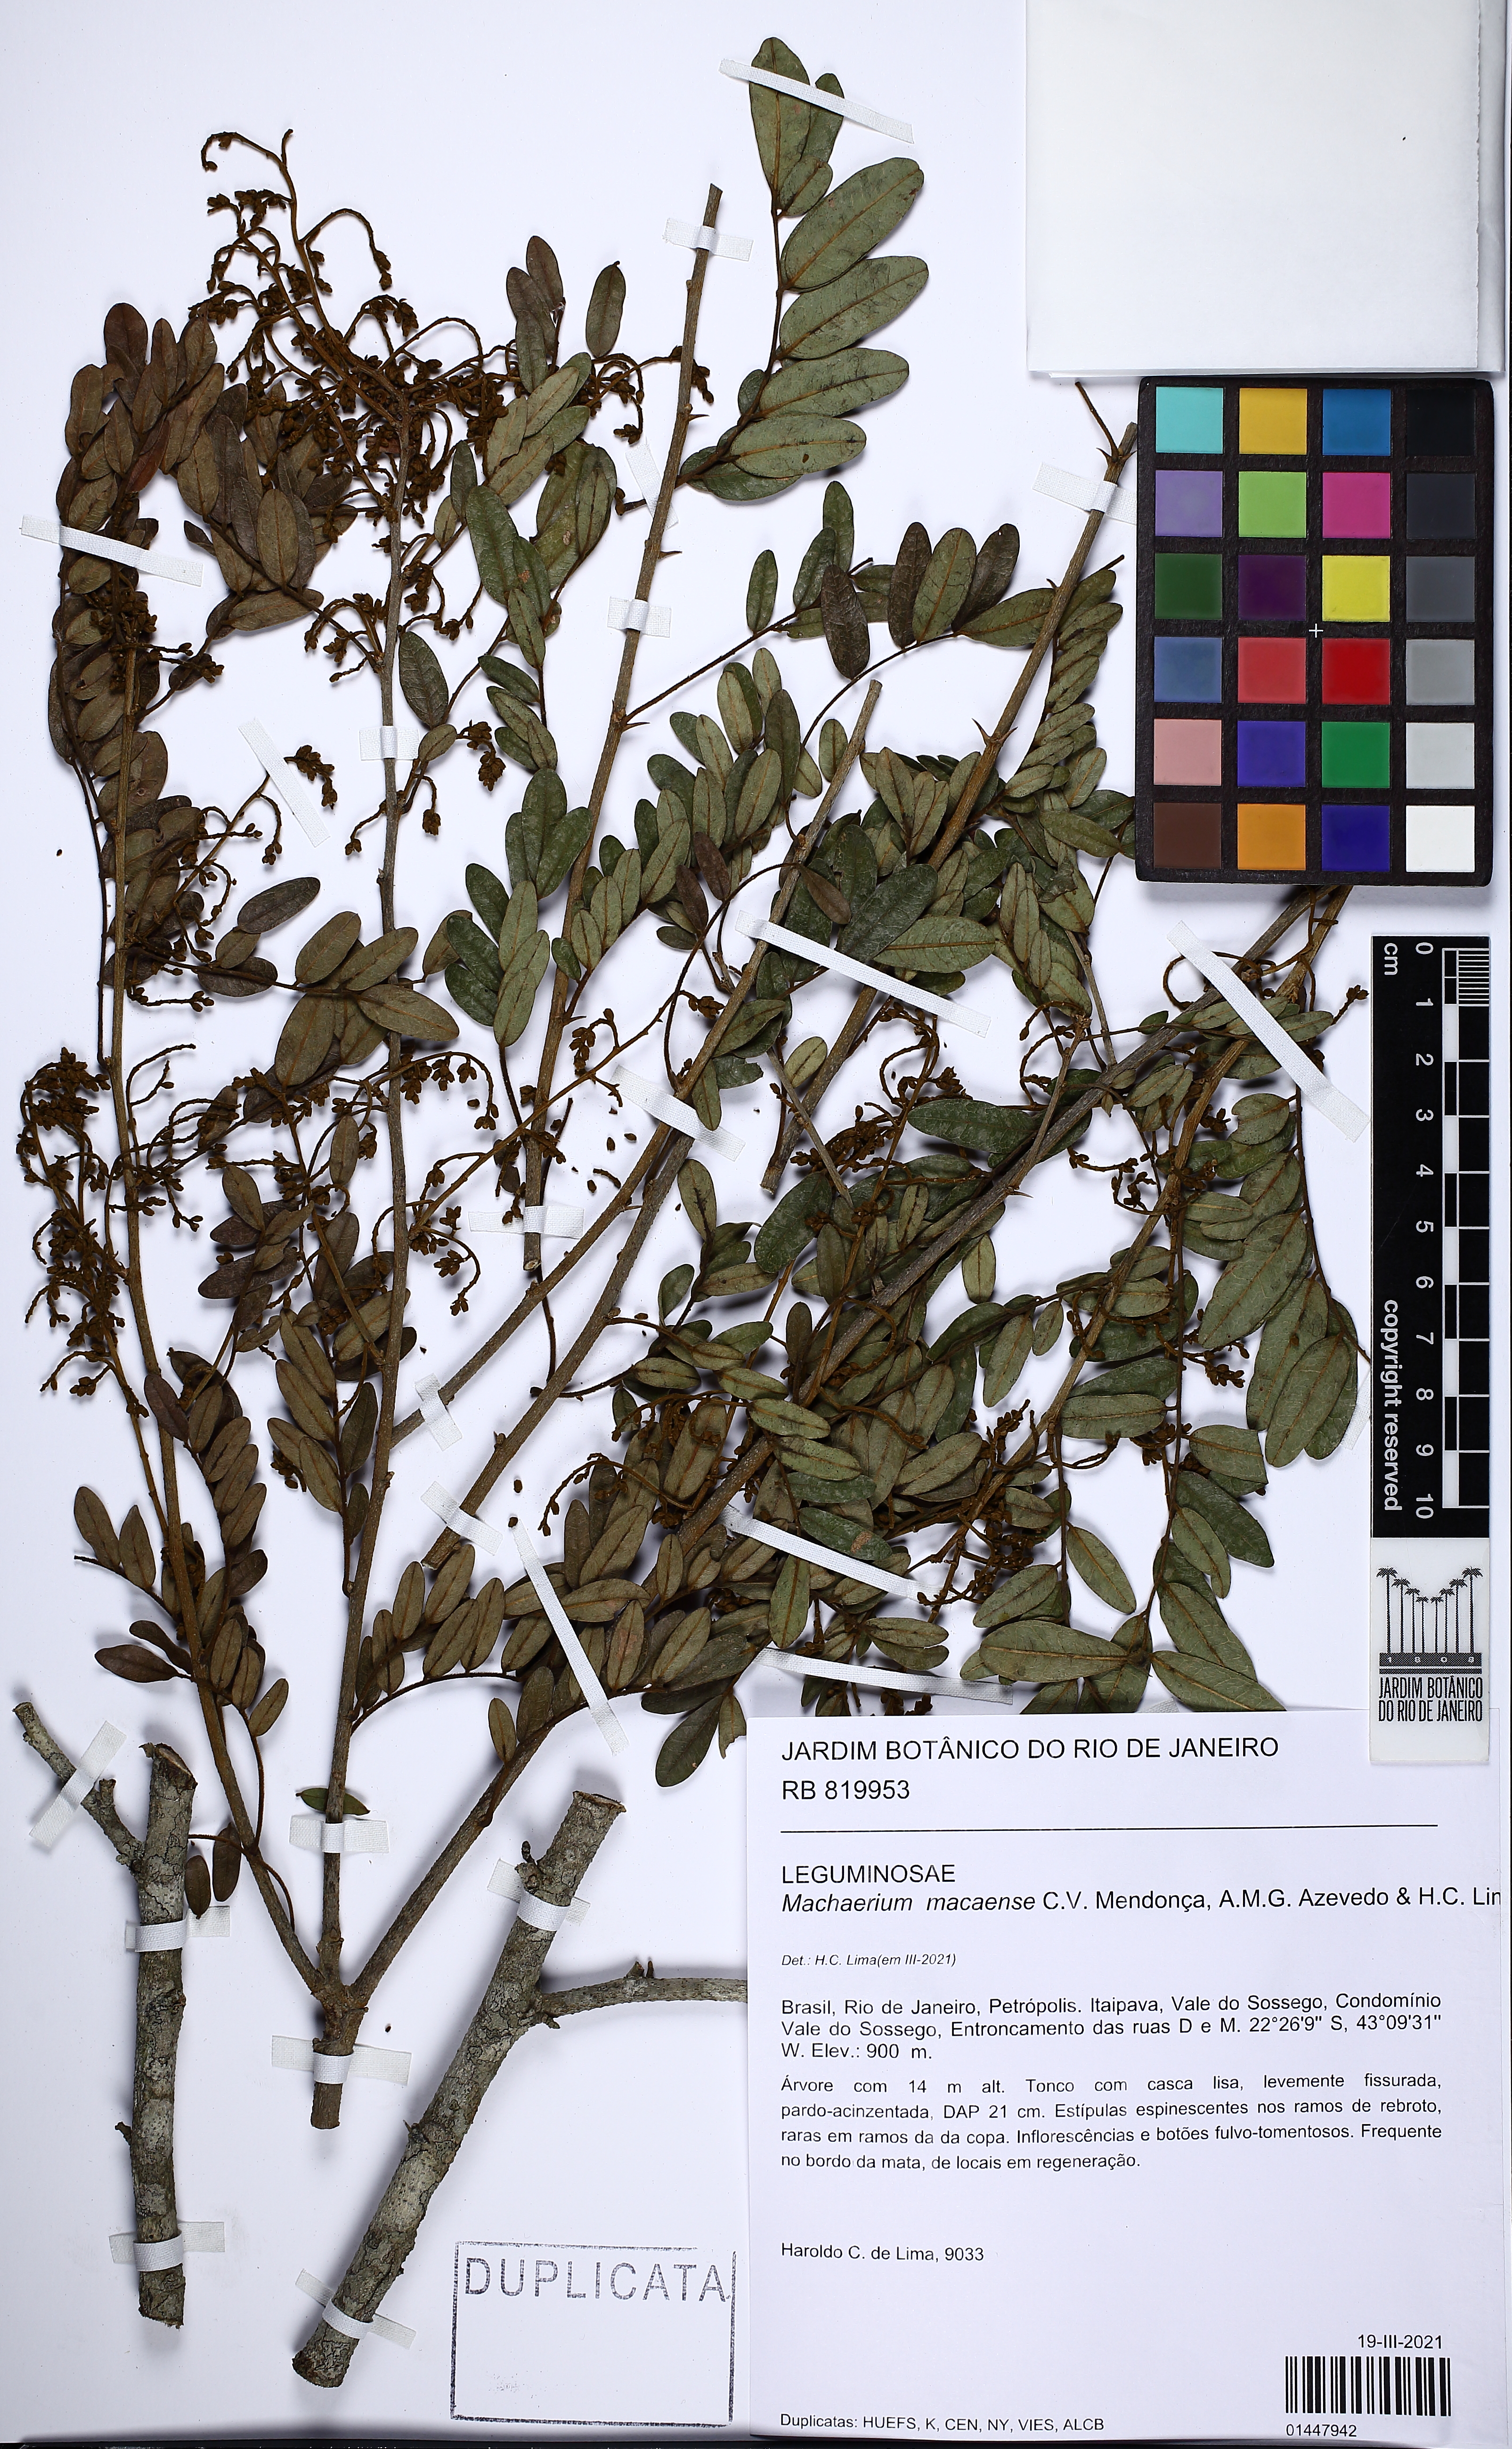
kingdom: Plantae
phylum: Tracheophyta
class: Magnoliopsida
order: Fabales
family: Fabaceae
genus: Machaerium
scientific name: Machaerium macaense
